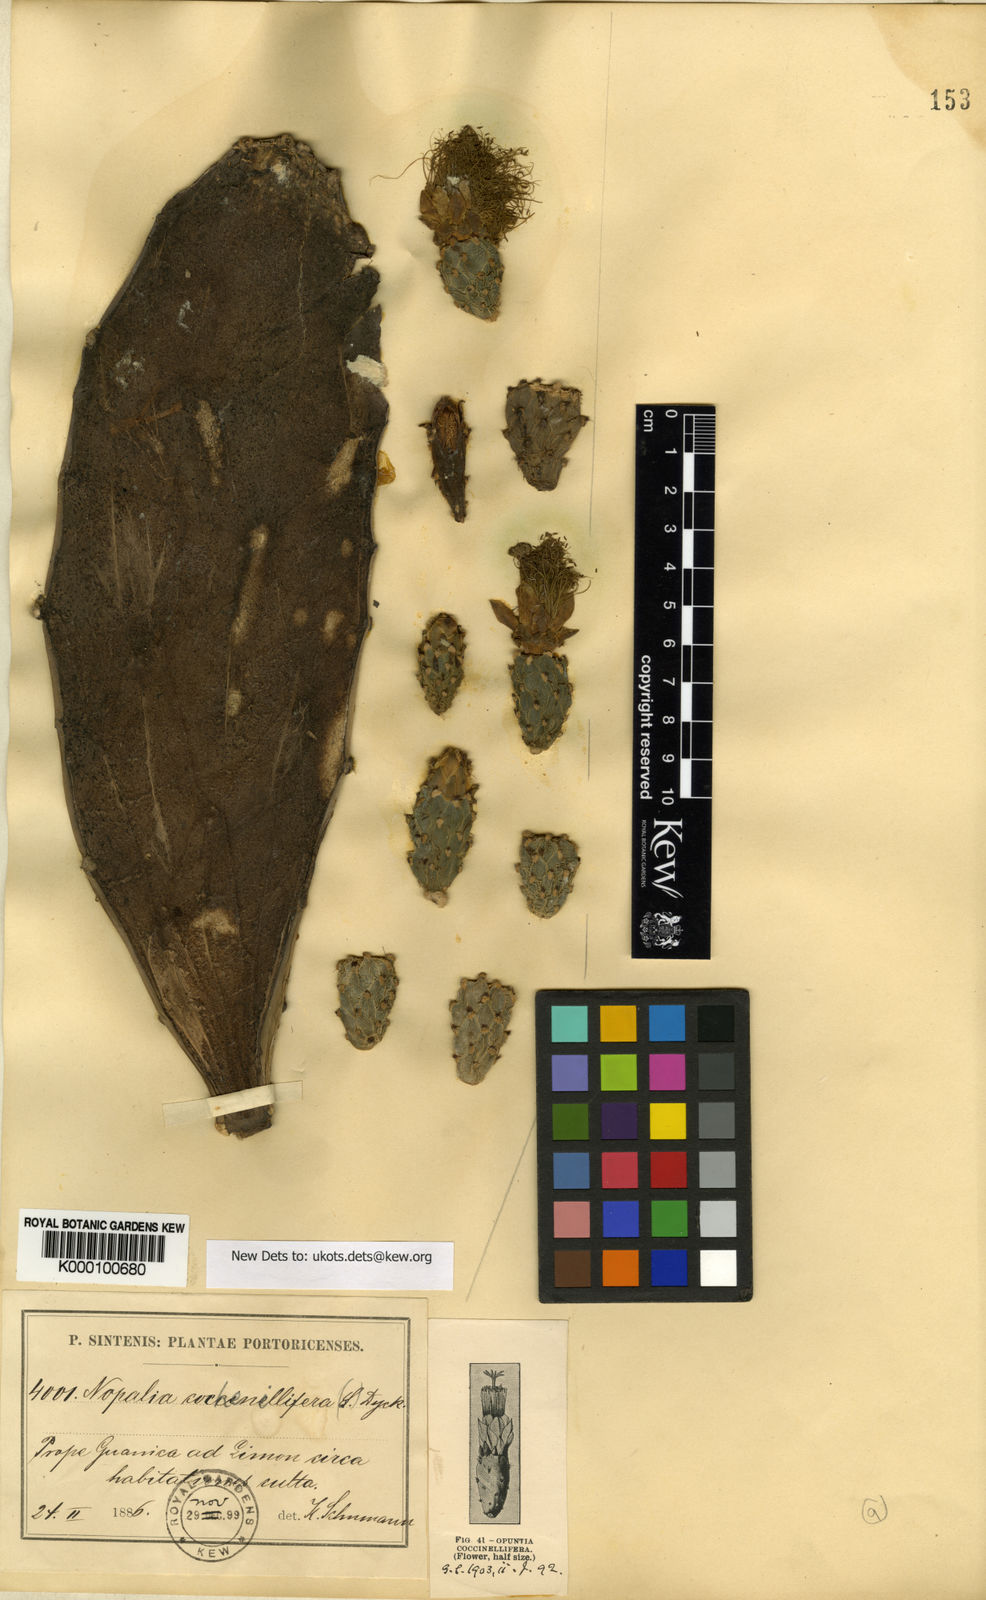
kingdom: Plantae
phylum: Tracheophyta
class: Magnoliopsida
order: Caryophyllales
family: Cactaceae
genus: Opuntia
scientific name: Opuntia cochenillifera
